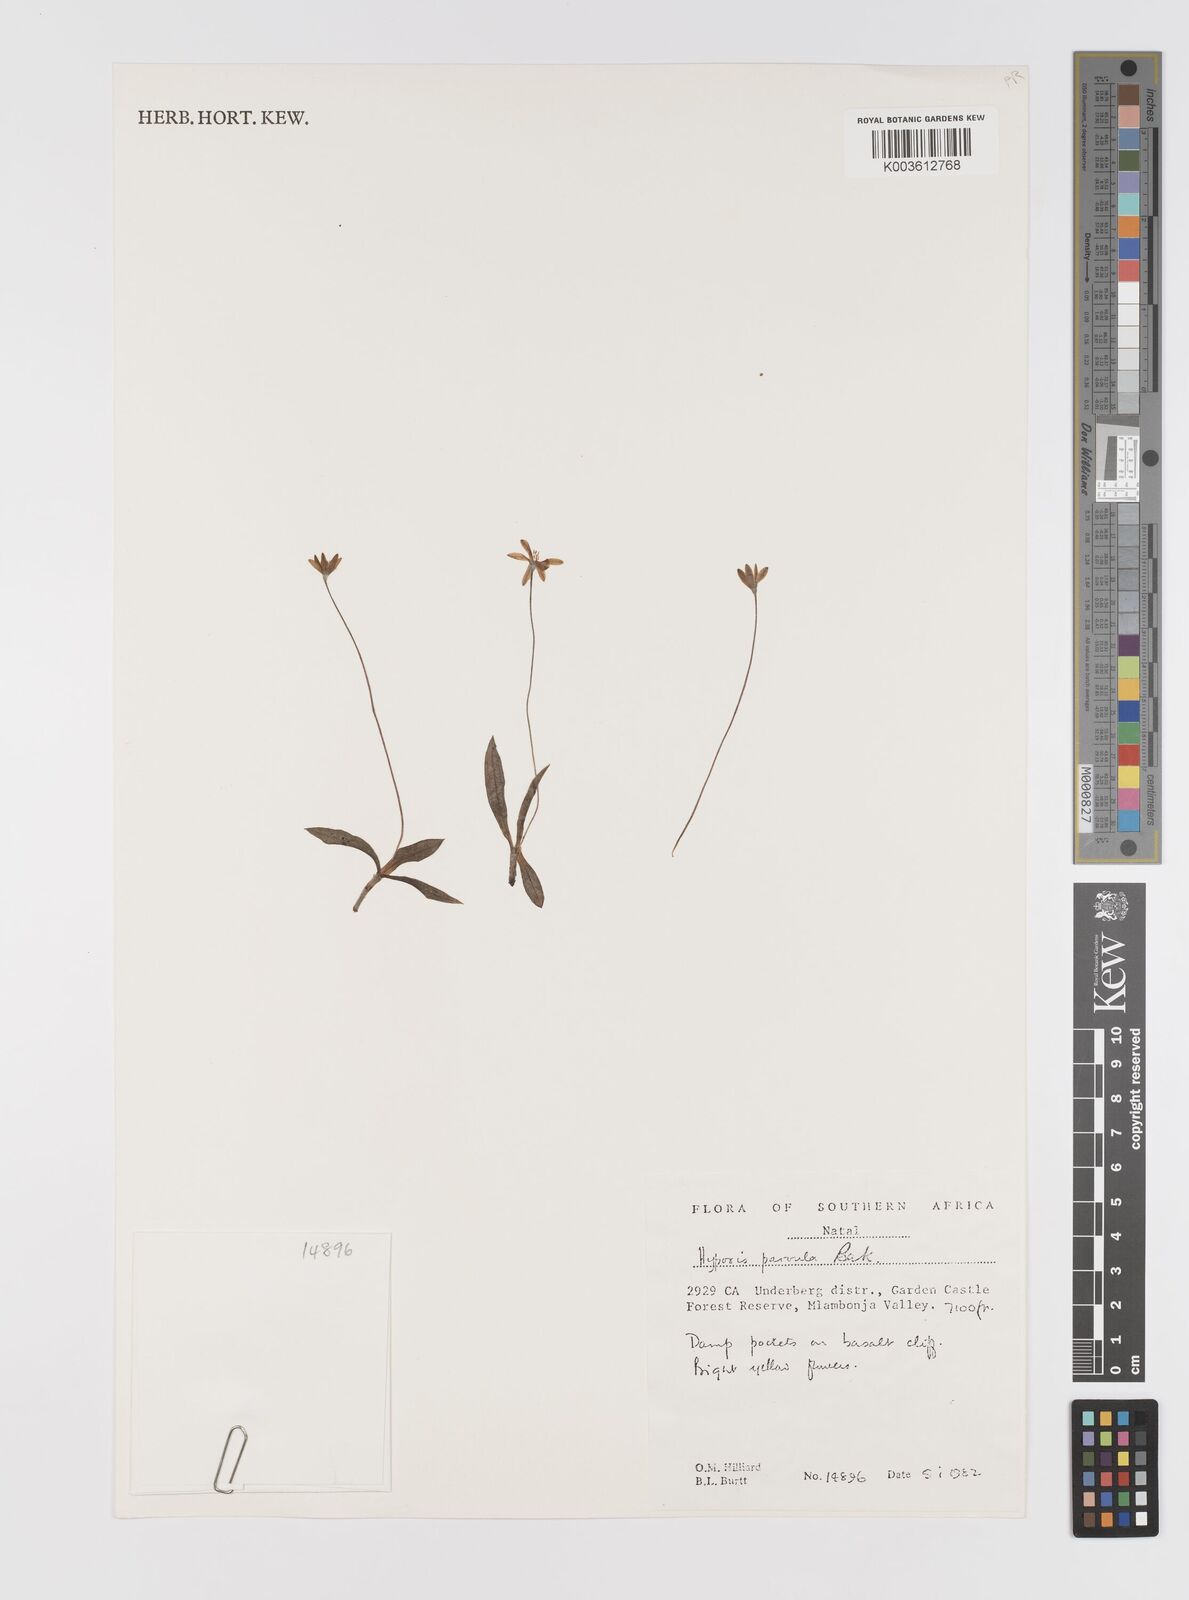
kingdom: Plantae
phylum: Tracheophyta
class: Liliopsida
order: Asparagales
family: Hypoxidaceae
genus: Hypoxis
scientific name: Hypoxis parvula
